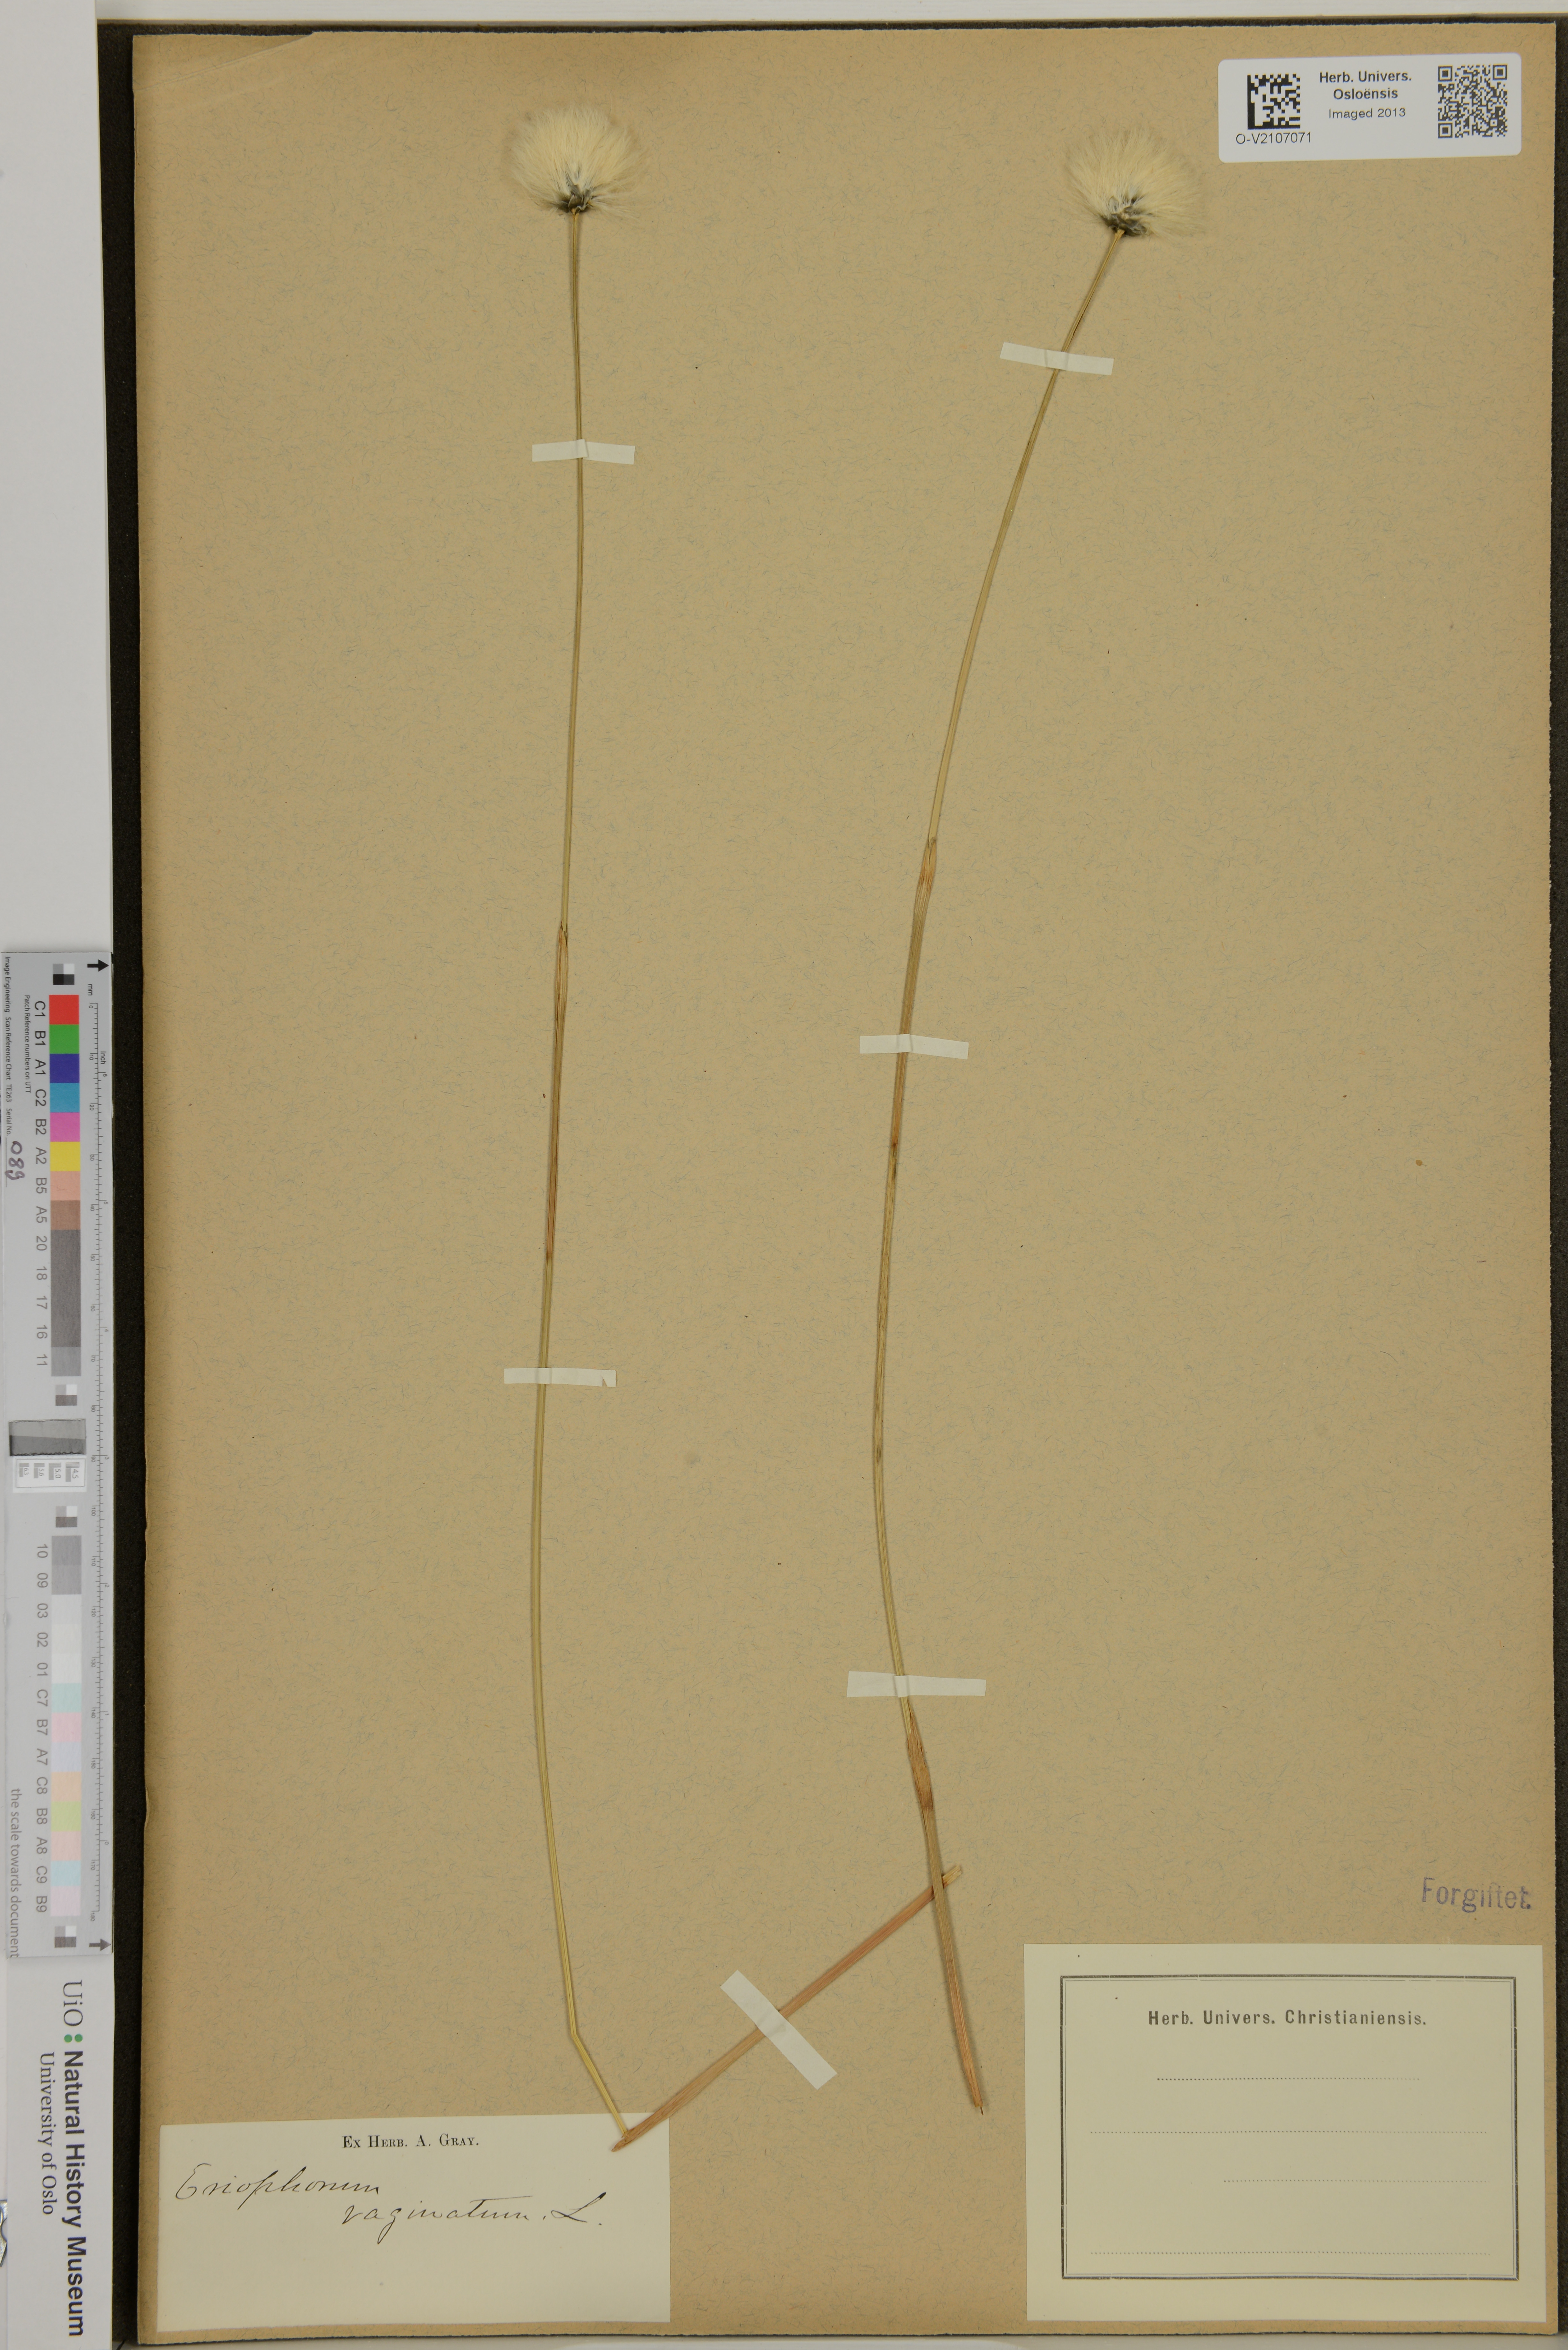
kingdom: Plantae
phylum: Tracheophyta
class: Liliopsida
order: Poales
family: Cyperaceae
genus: Eriophorum
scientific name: Eriophorum vaginatum
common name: Hare's-tail cottongrass
